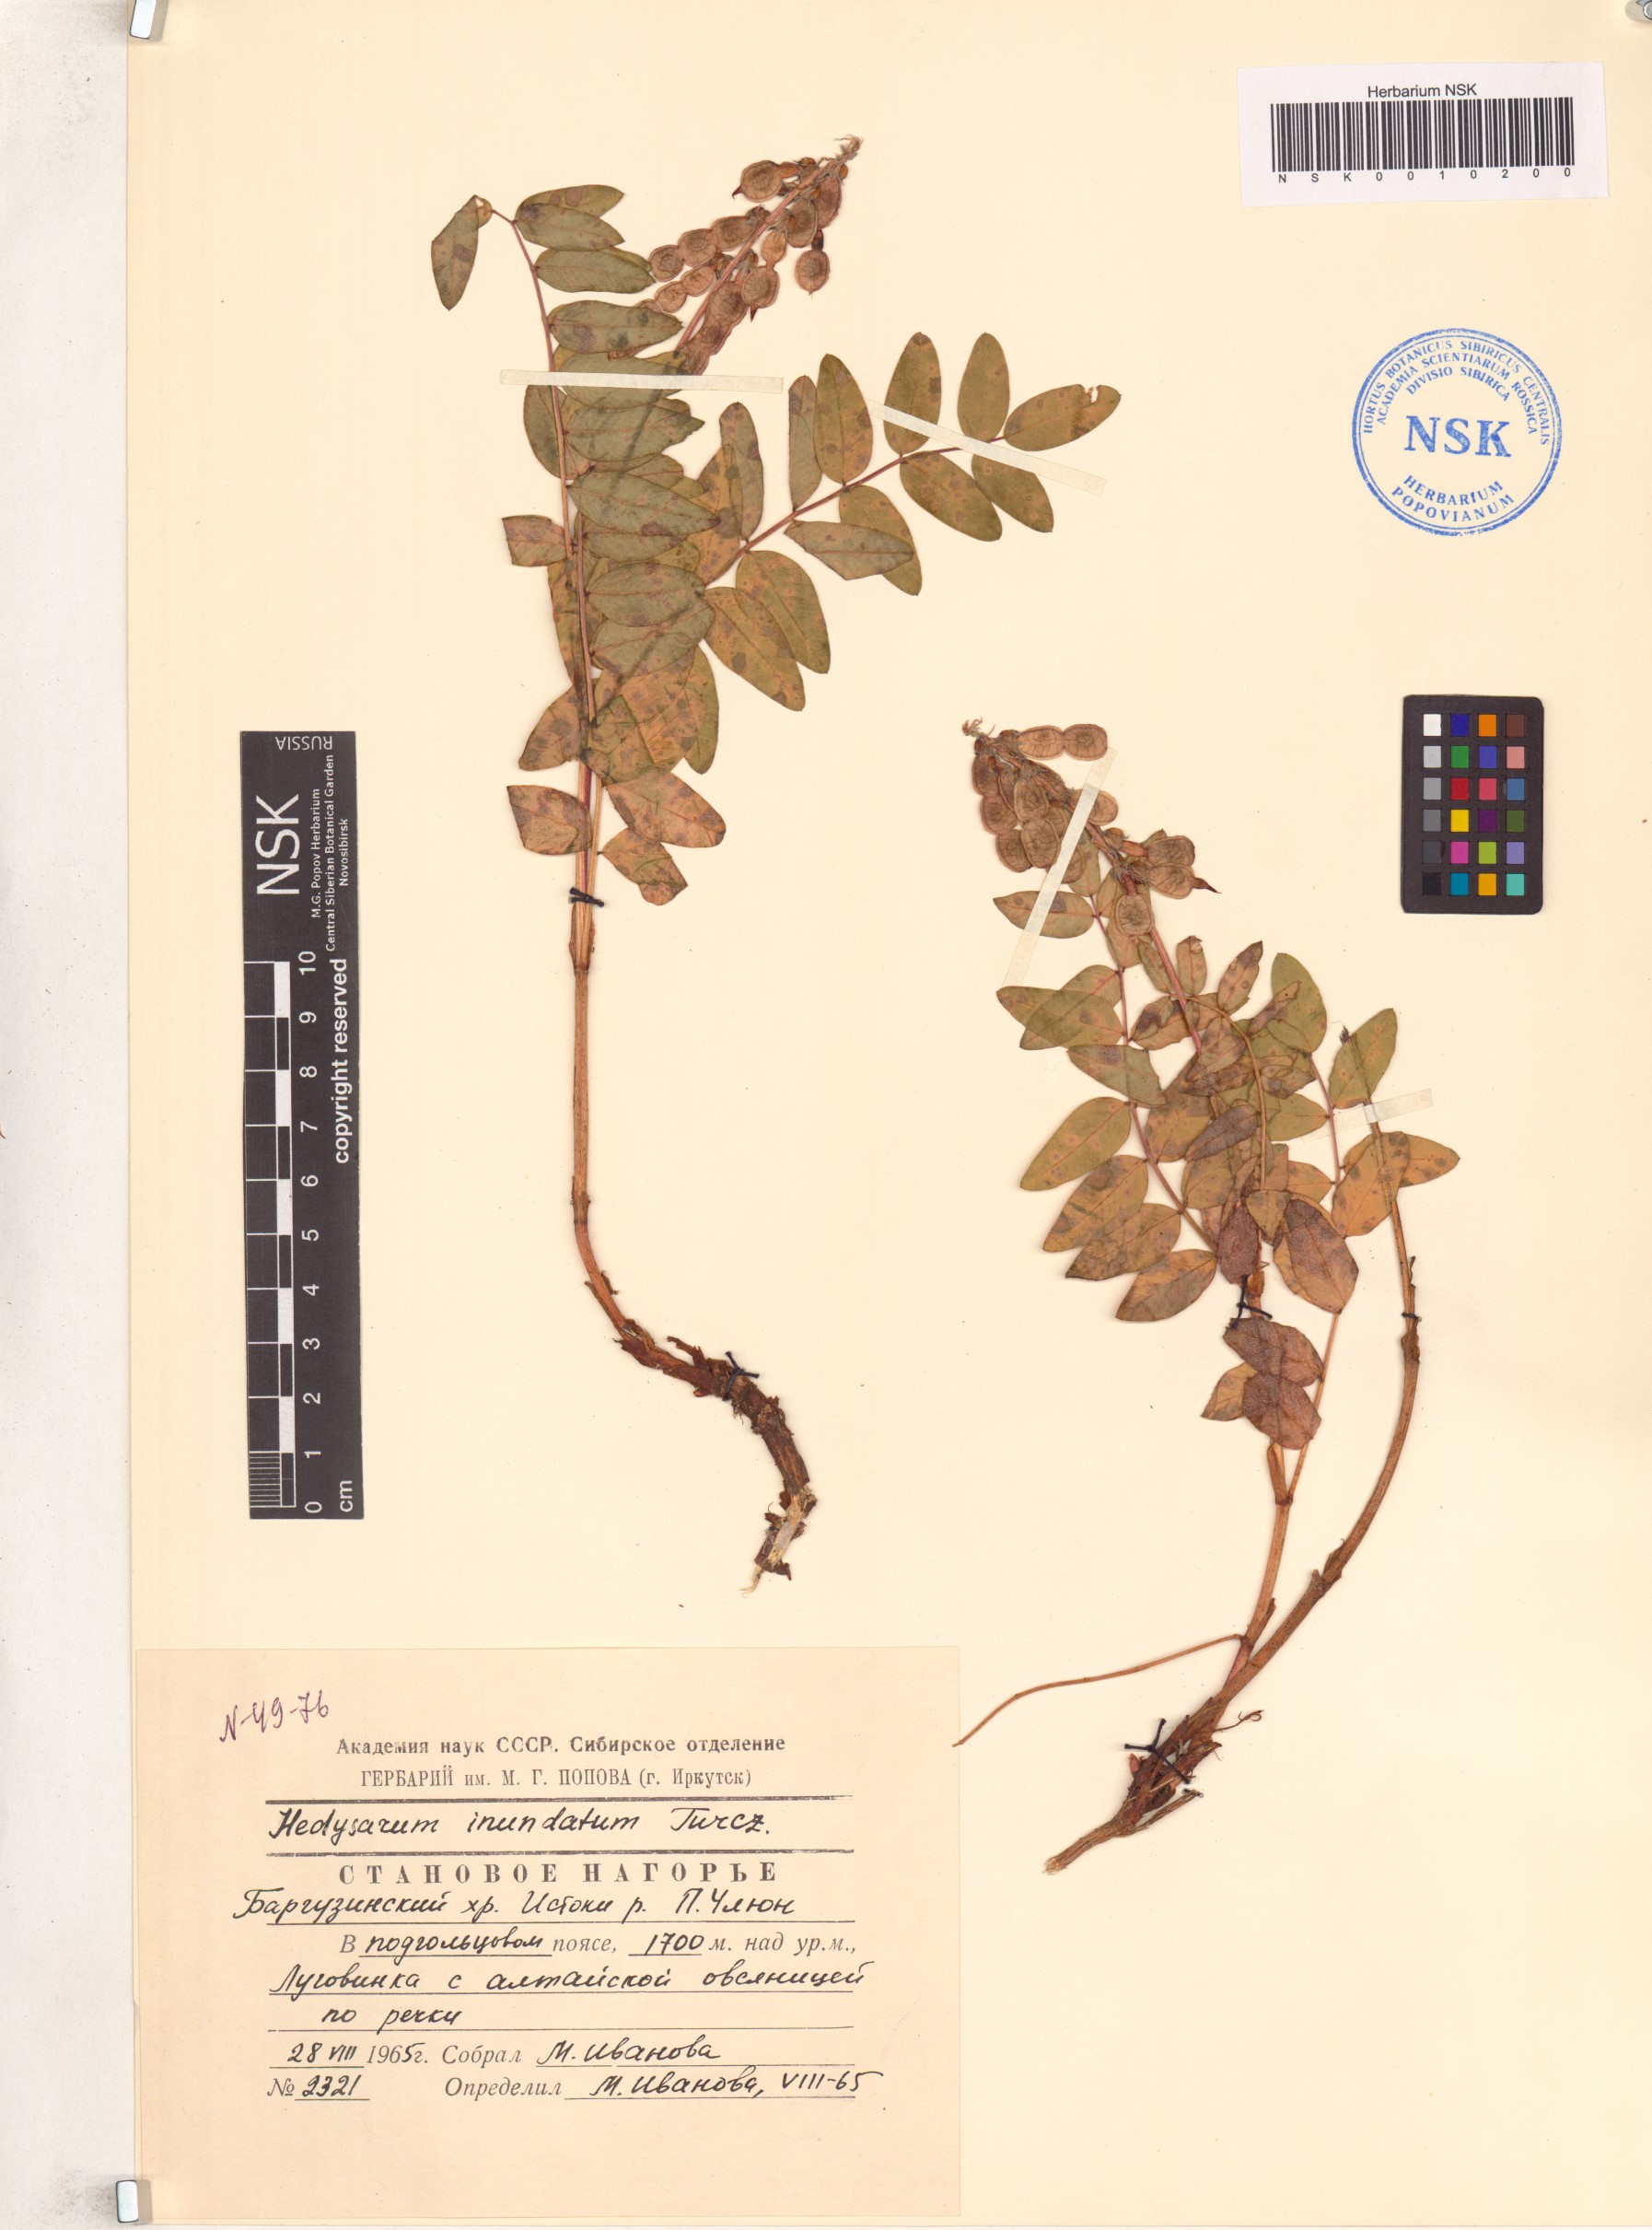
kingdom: Plantae
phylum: Tracheophyta
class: Magnoliopsida
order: Fabales
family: Fabaceae
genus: Hedysarum
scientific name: Hedysarum inundatum
